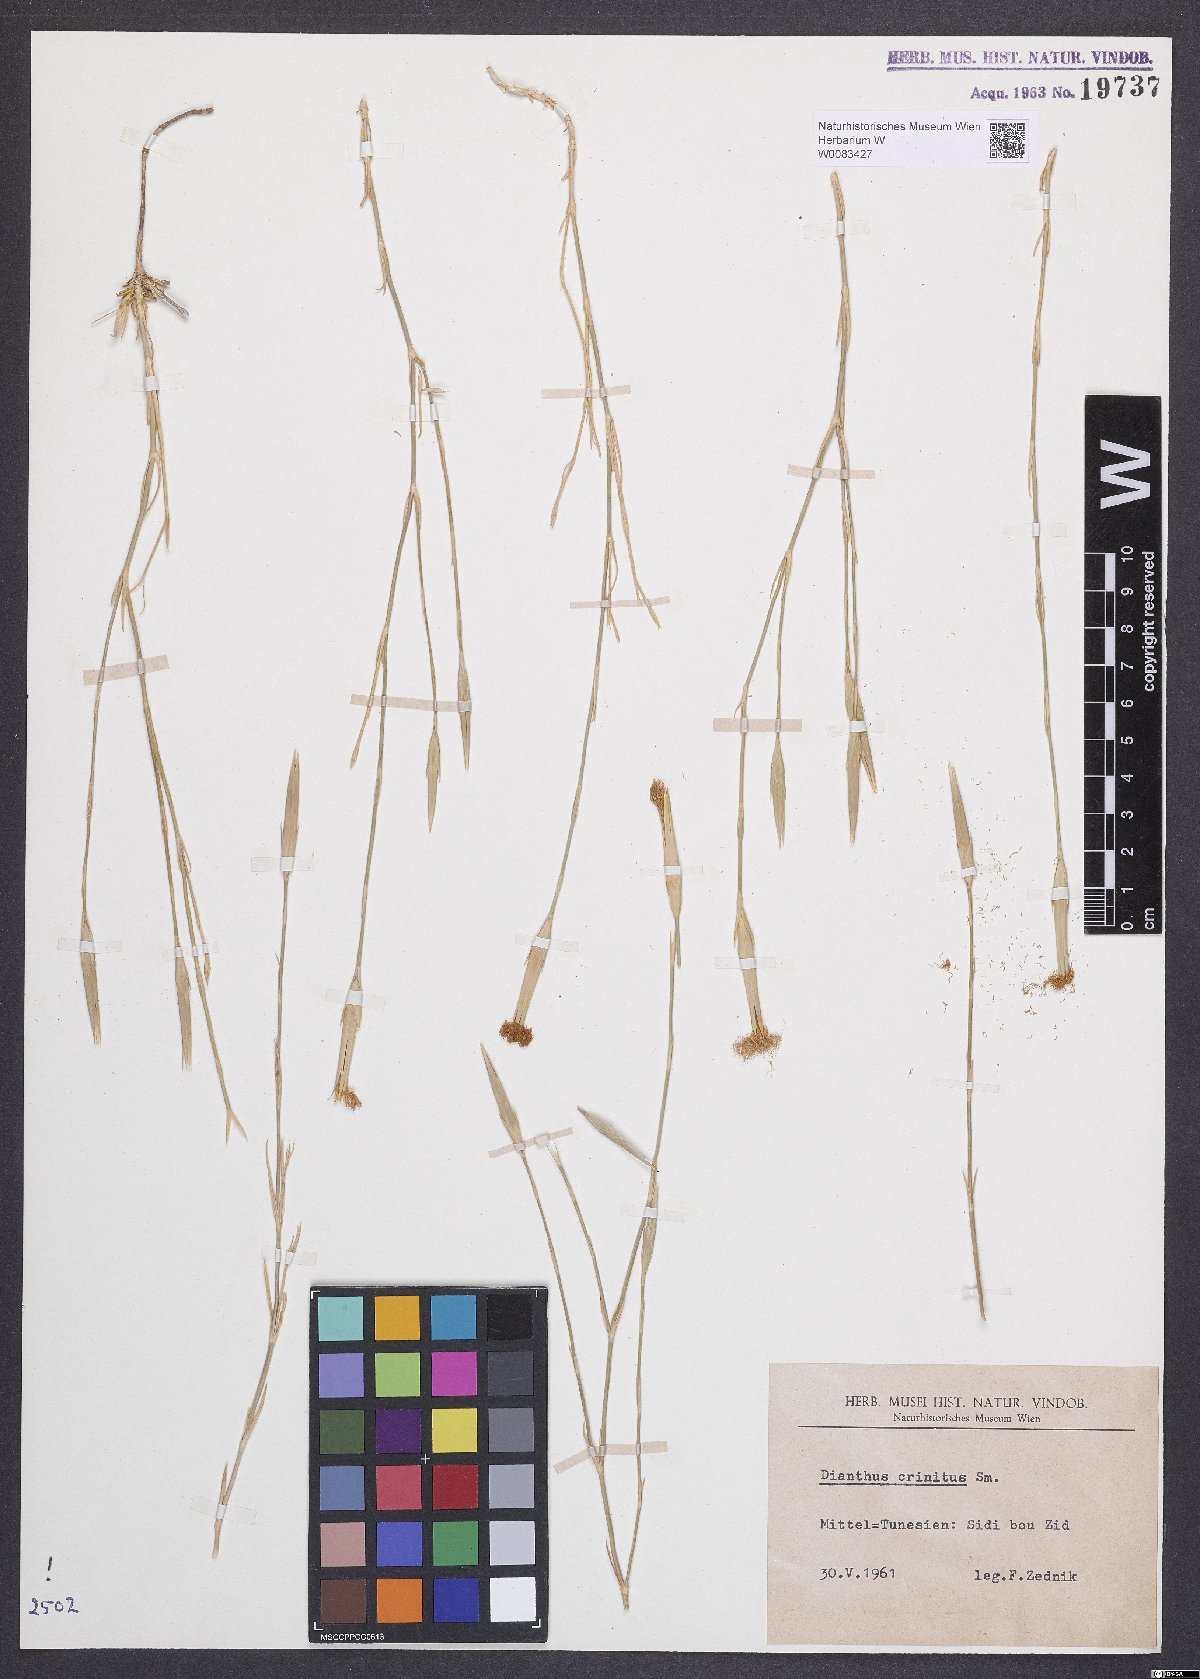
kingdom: Plantae
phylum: Tracheophyta
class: Magnoliopsida
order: Caryophyllales
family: Caryophyllaceae
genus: Dianthus
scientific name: Dianthus crinitus
